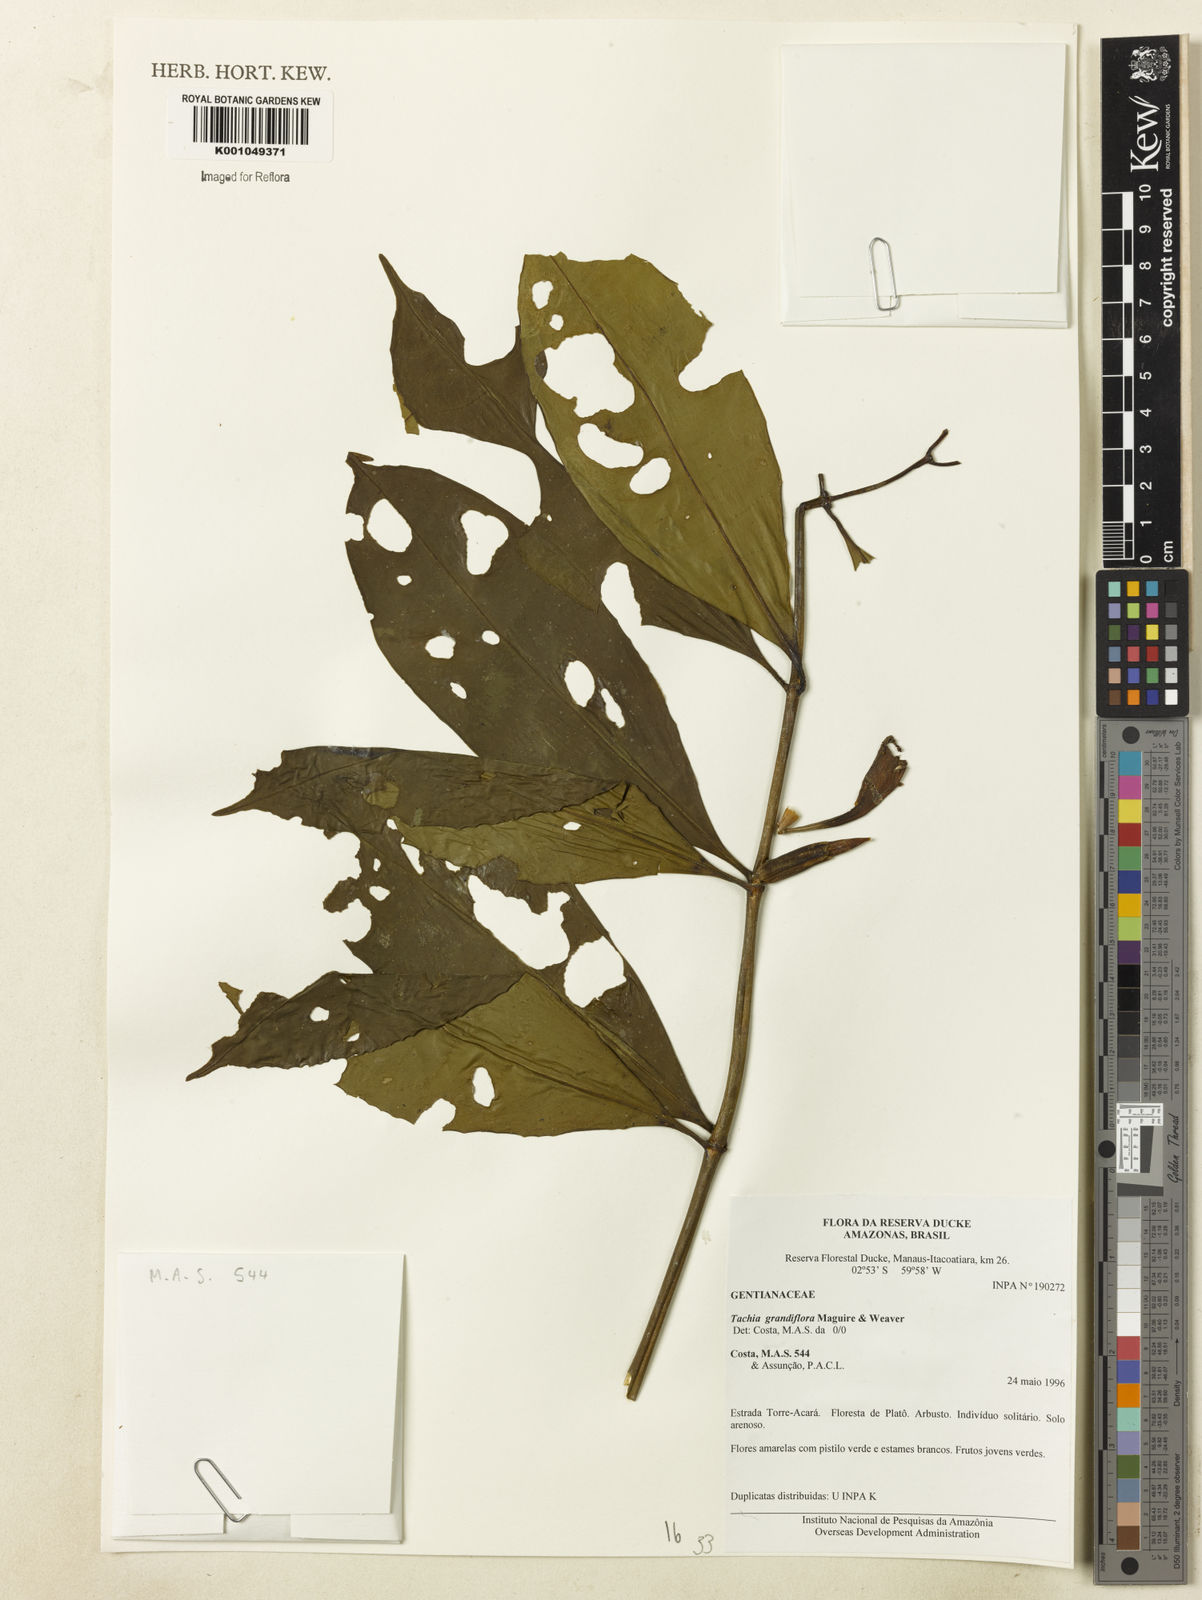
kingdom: Plantae
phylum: Tracheophyta
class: Magnoliopsida
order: Gentianales
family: Gentianaceae
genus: Tachia
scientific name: Tachia grandiflora
